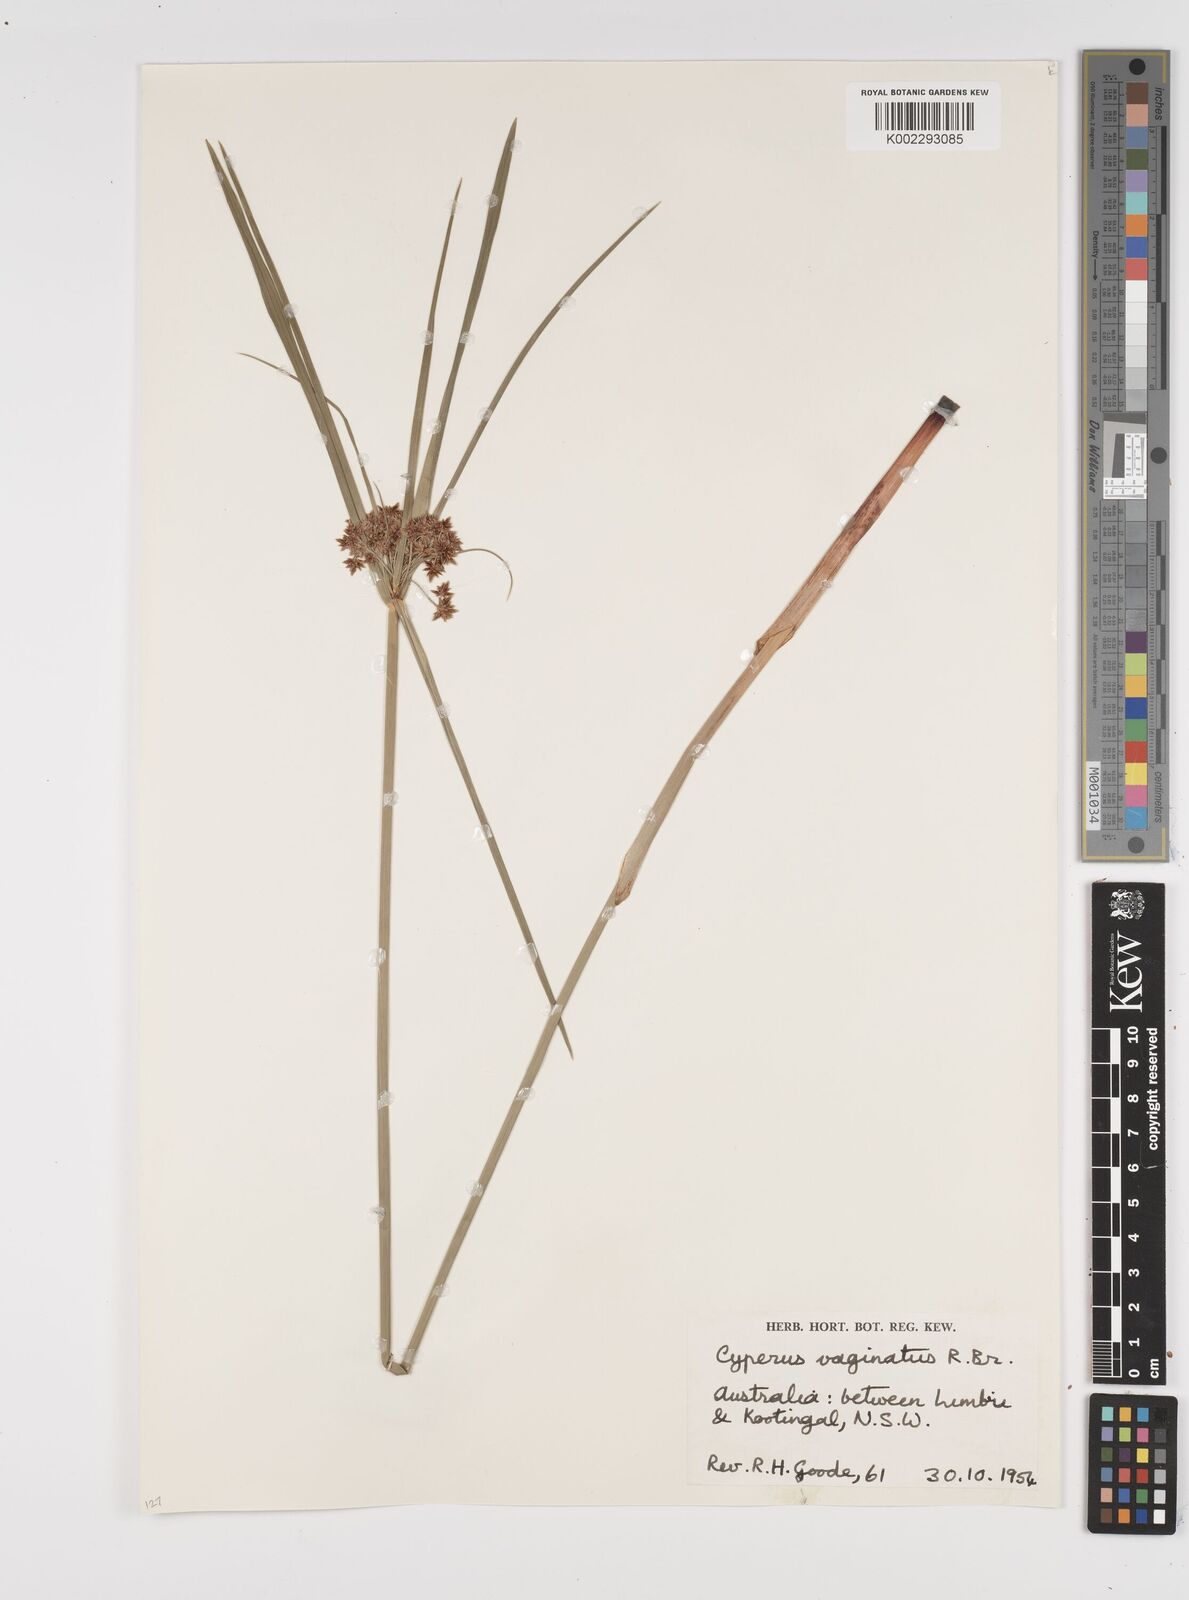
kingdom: Plantae
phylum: Tracheophyta
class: Liliopsida
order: Poales
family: Cyperaceae
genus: Cyperus
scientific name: Cyperus vaginatus
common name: Stiff-leaved flat-sedge
